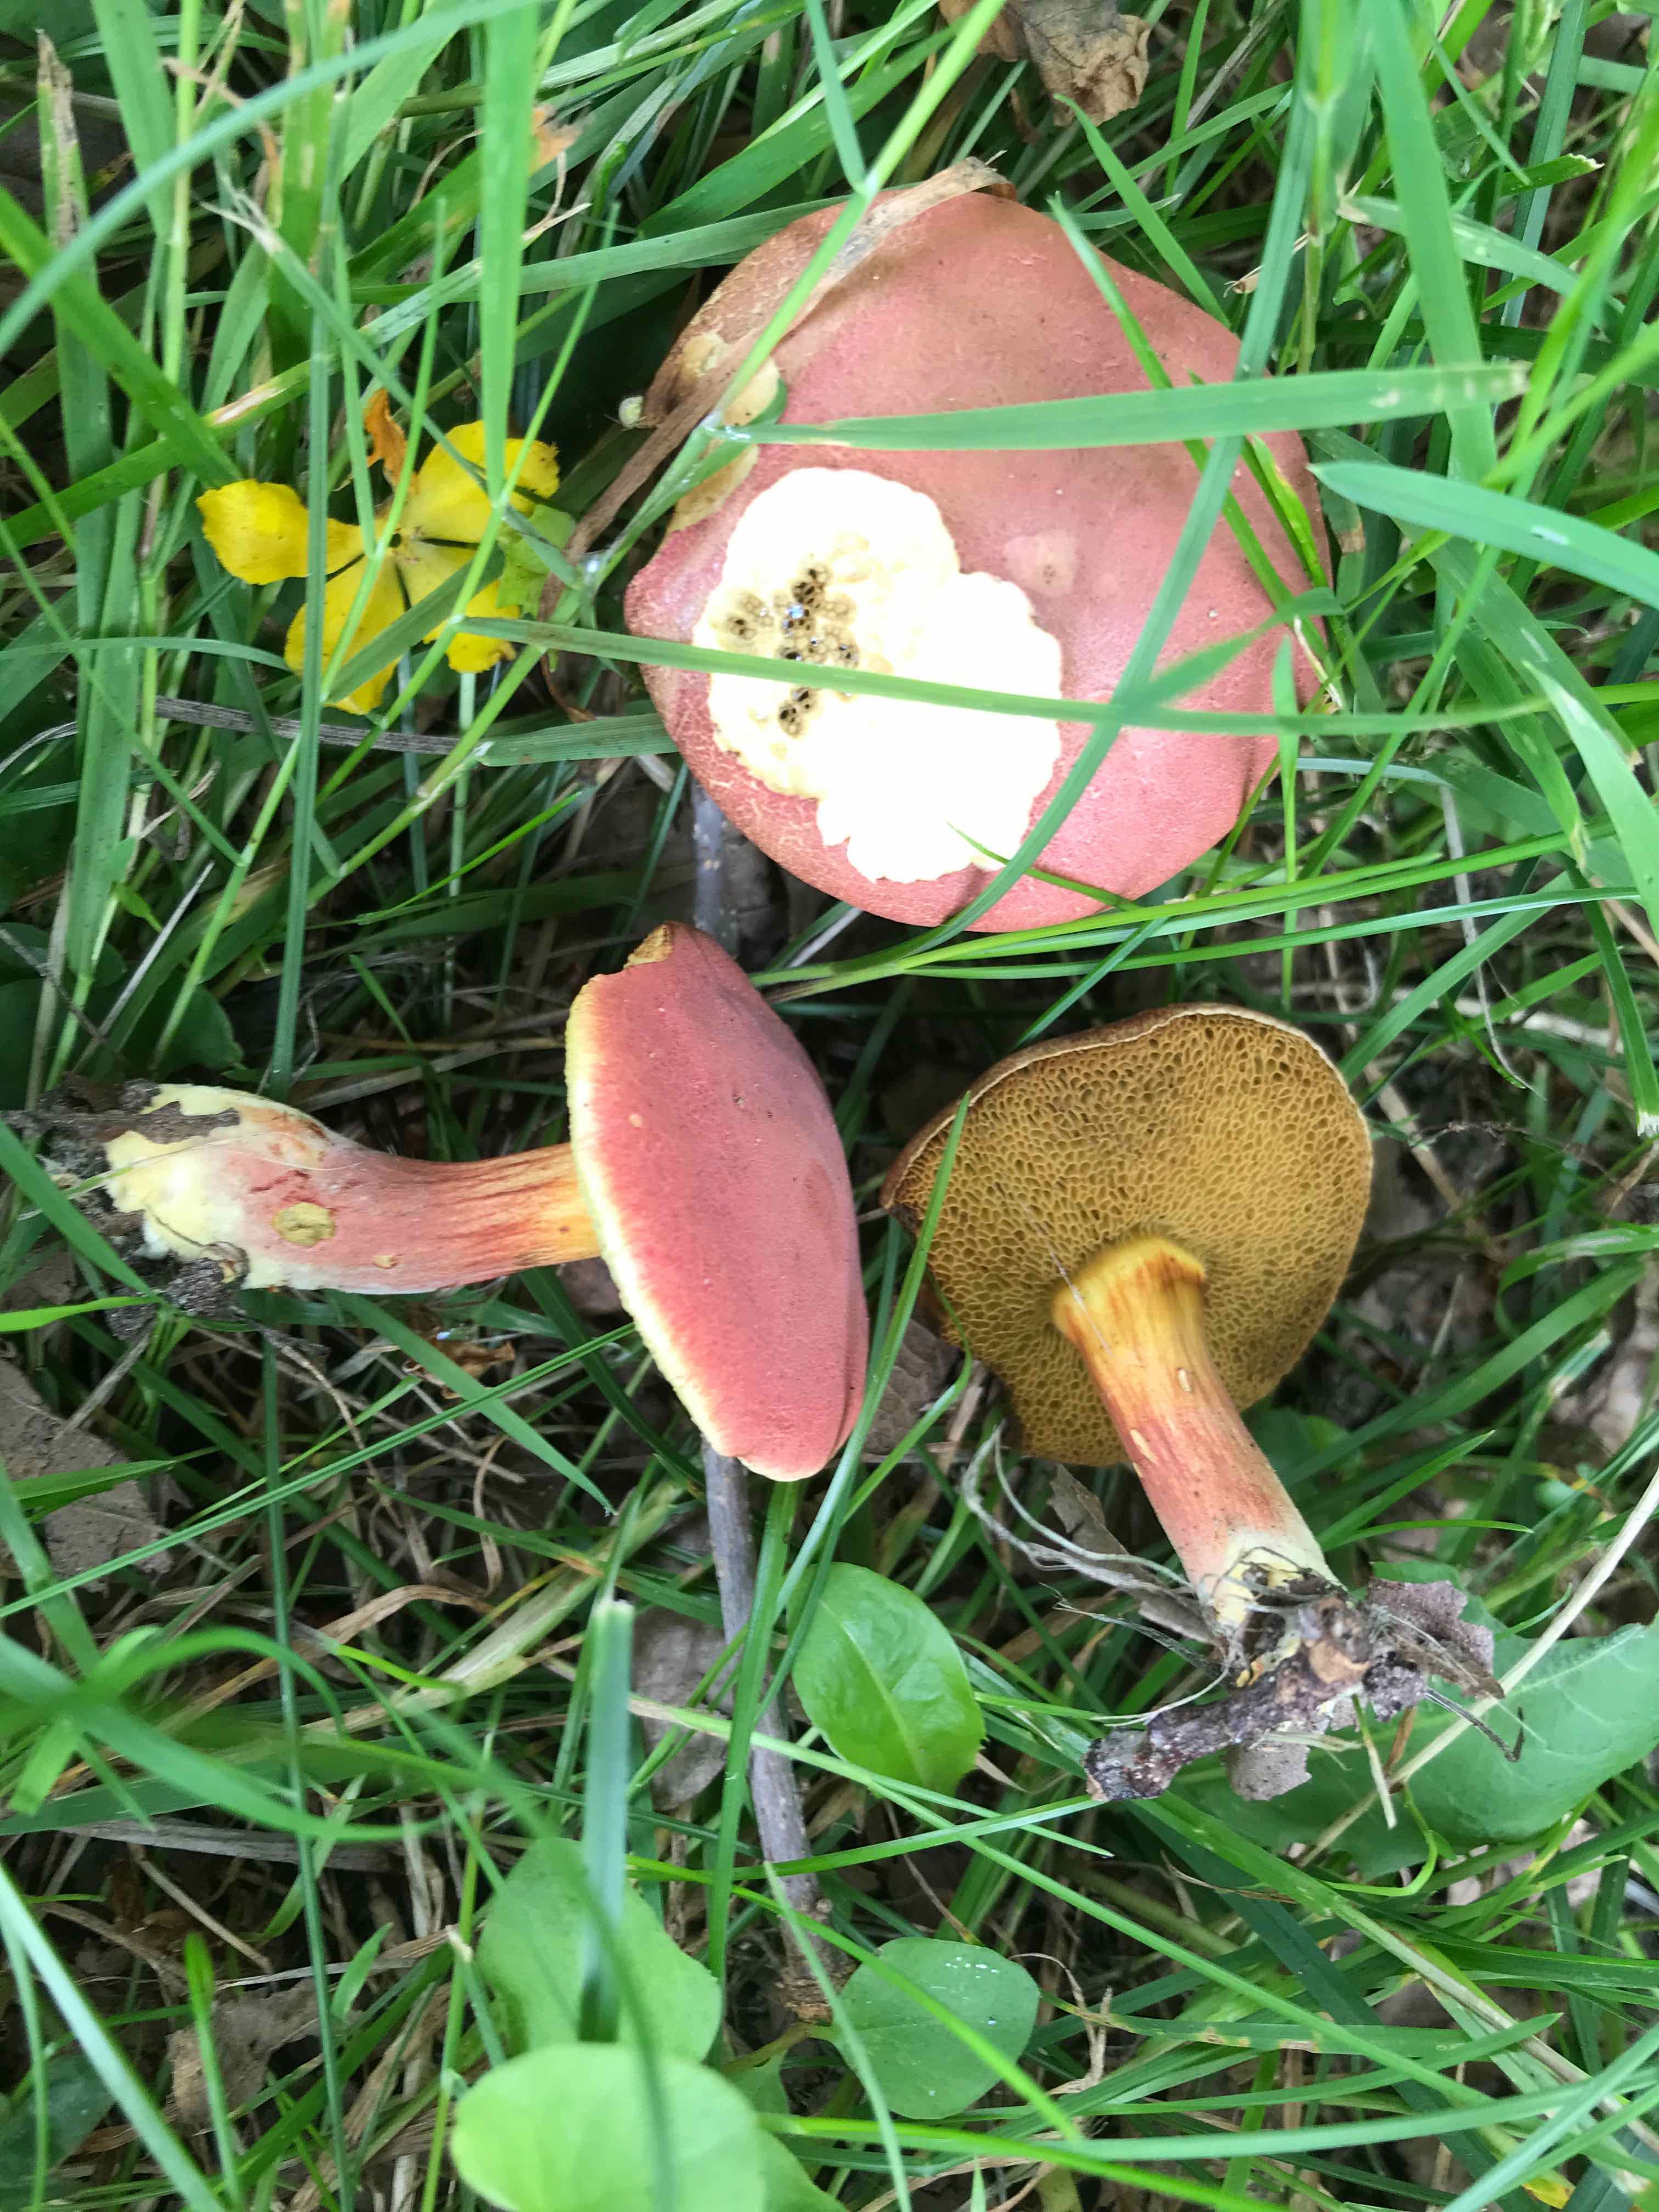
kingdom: Fungi
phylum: Basidiomycota
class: Agaricomycetes
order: Boletales
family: Boletaceae
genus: Hortiboletus
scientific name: Hortiboletus rubellus
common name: blodrød rørhat
